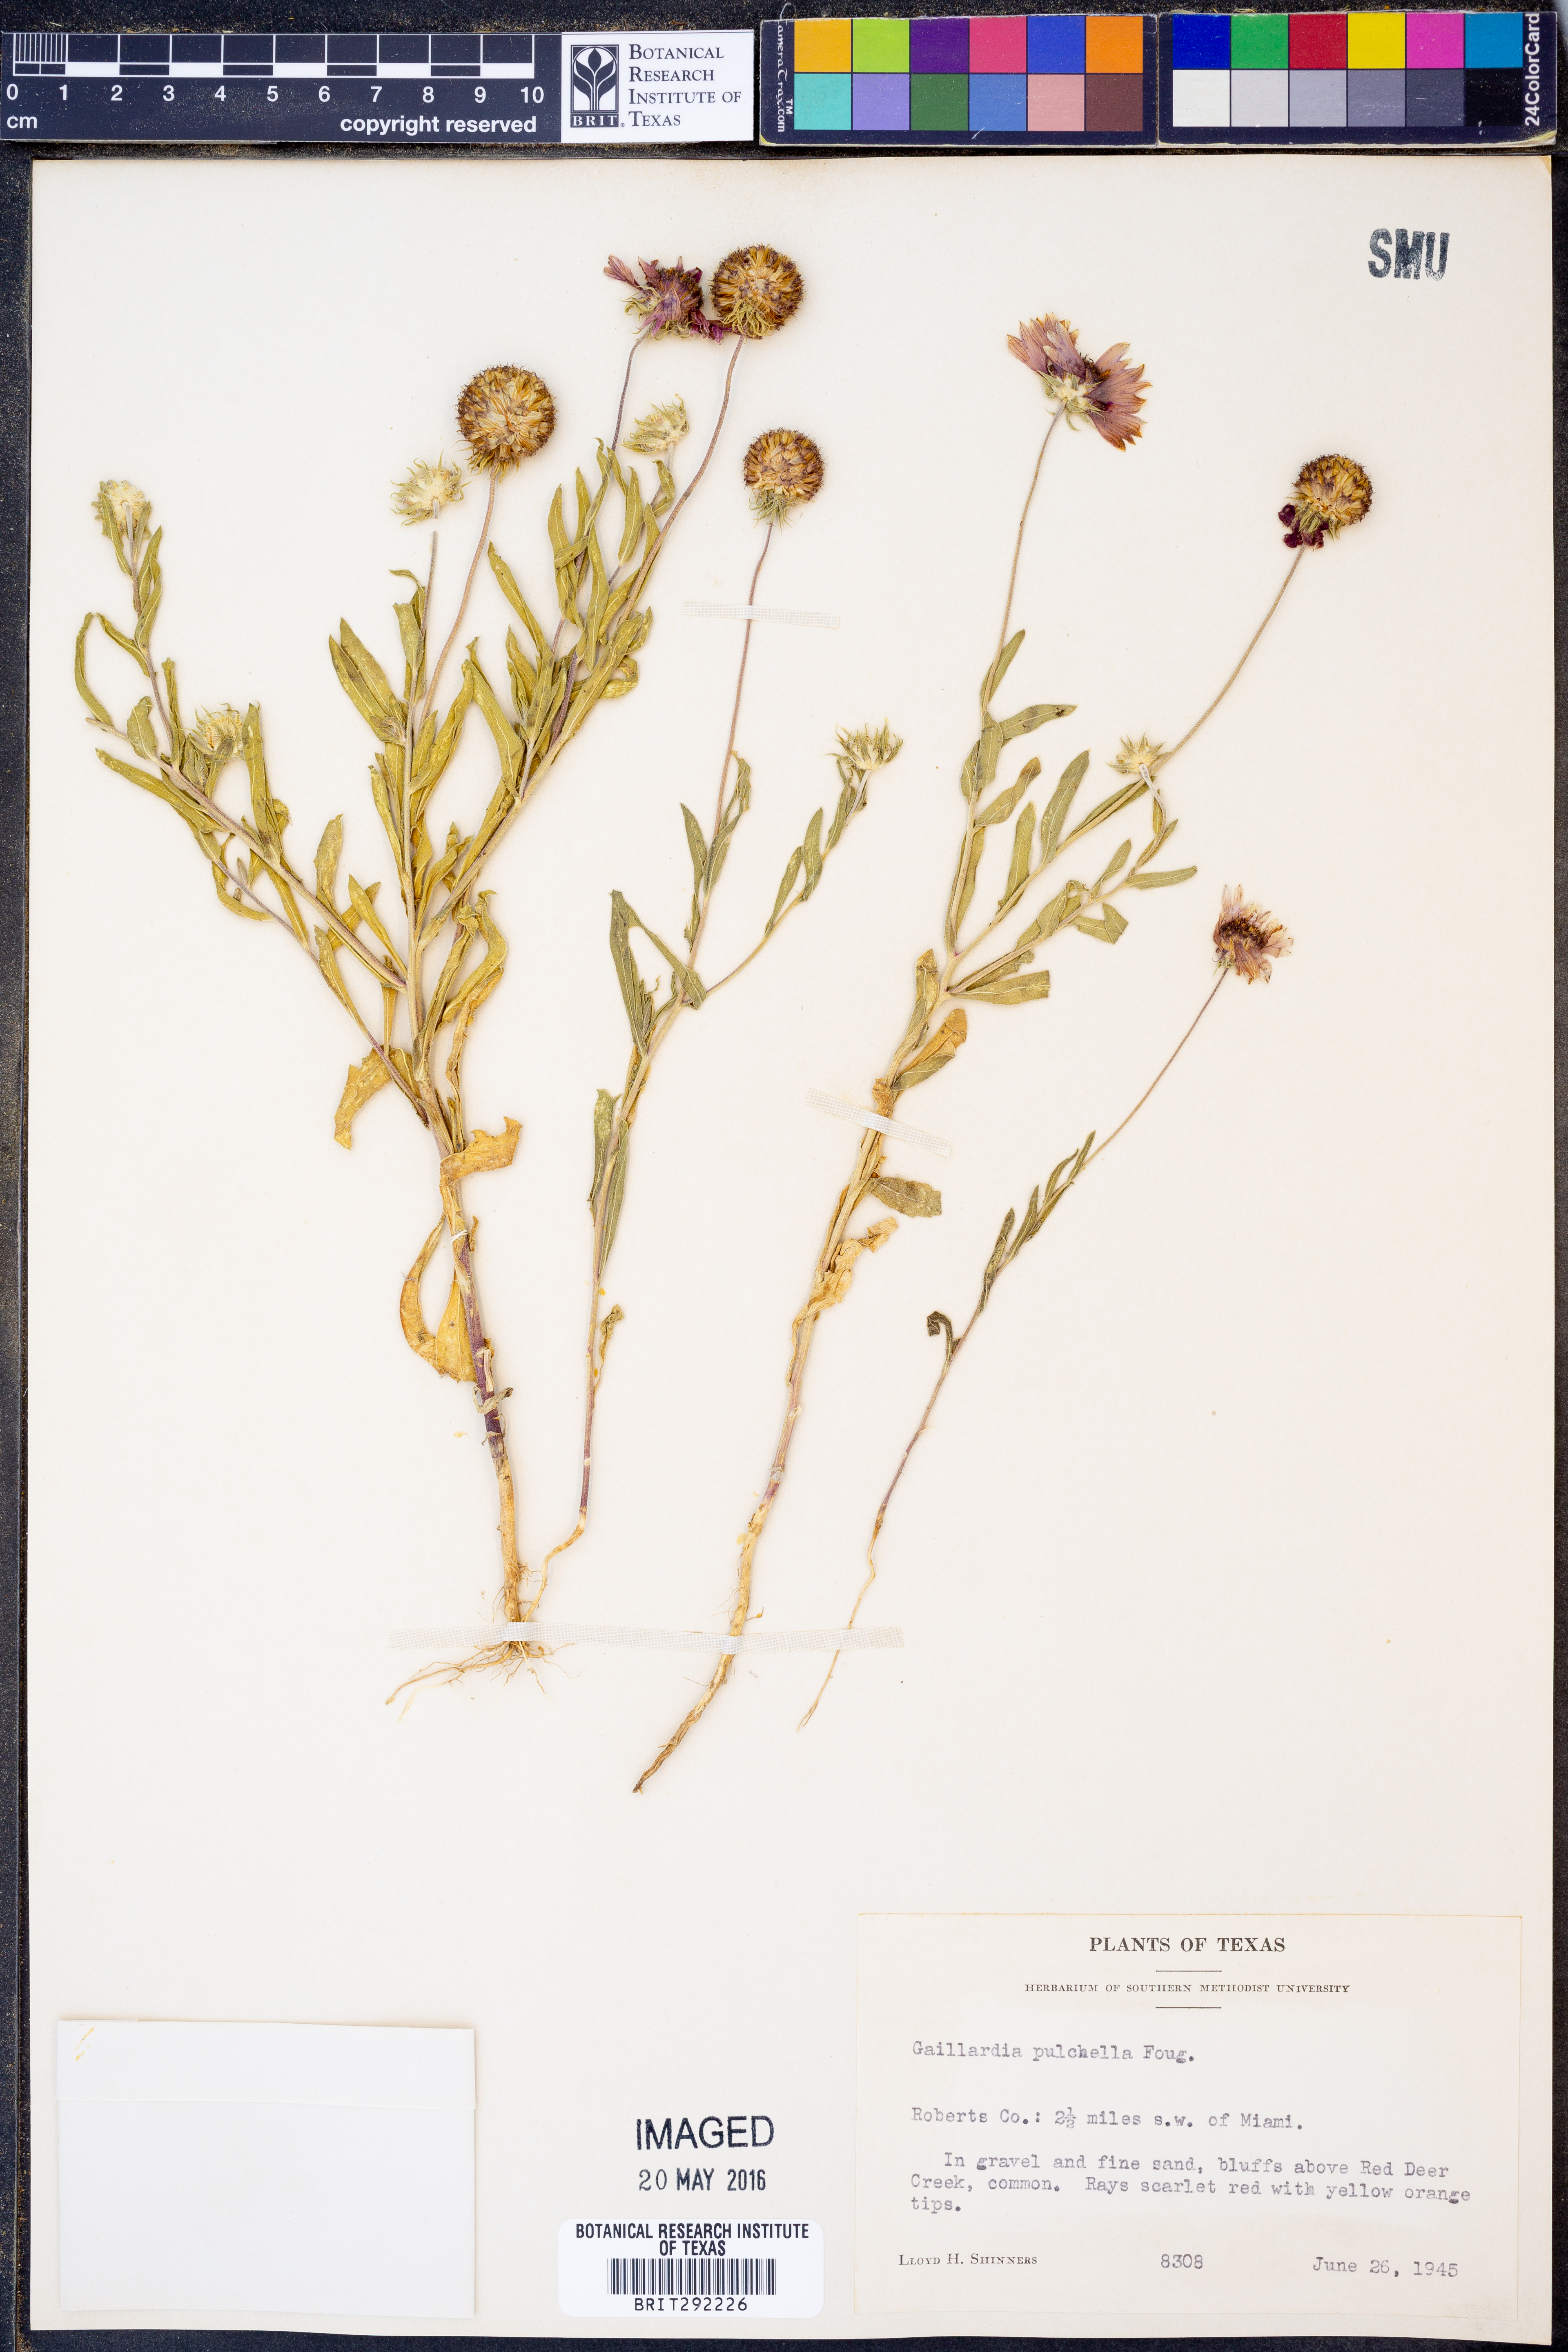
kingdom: Plantae
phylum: Tracheophyta
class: Magnoliopsida
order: Asterales
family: Asteraceae
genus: Gaillardia
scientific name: Gaillardia pulchella
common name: Firewheel
